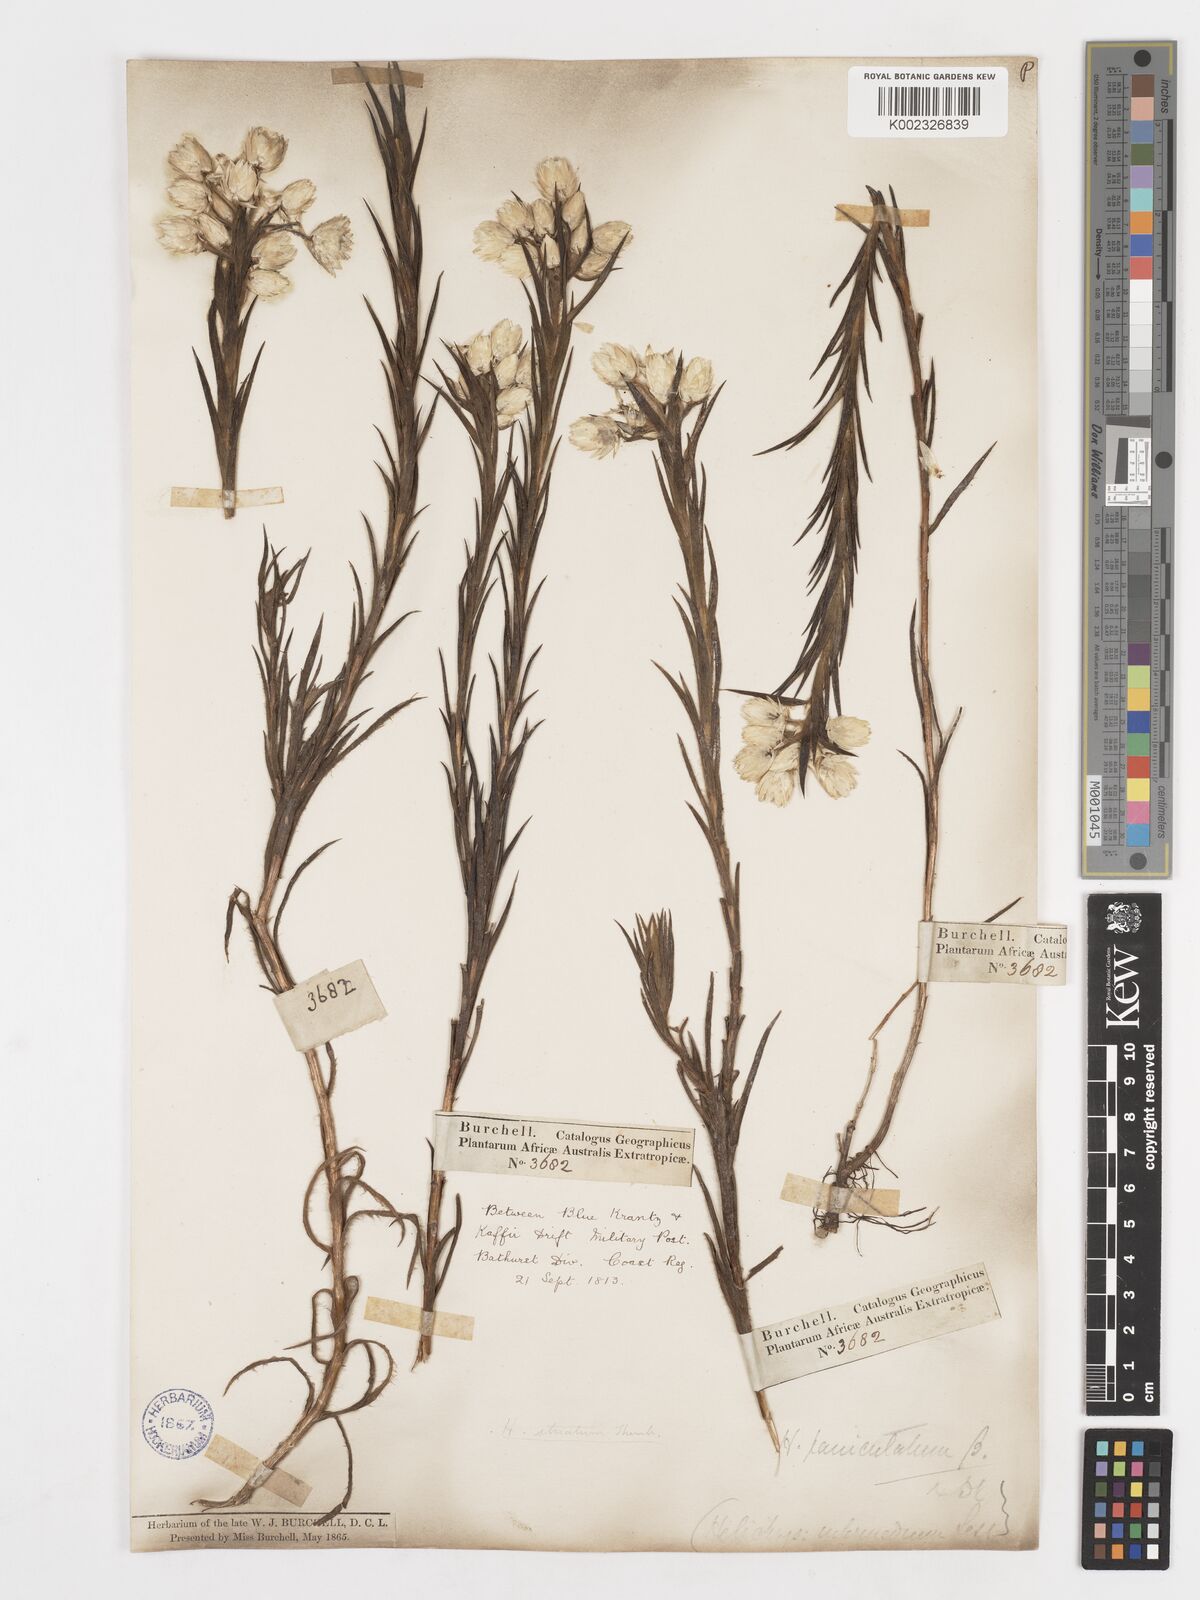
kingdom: Plantae
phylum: Tracheophyta
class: Magnoliopsida
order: Asterales
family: Asteraceae
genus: Achyranthemum
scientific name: Achyranthemum striatum
